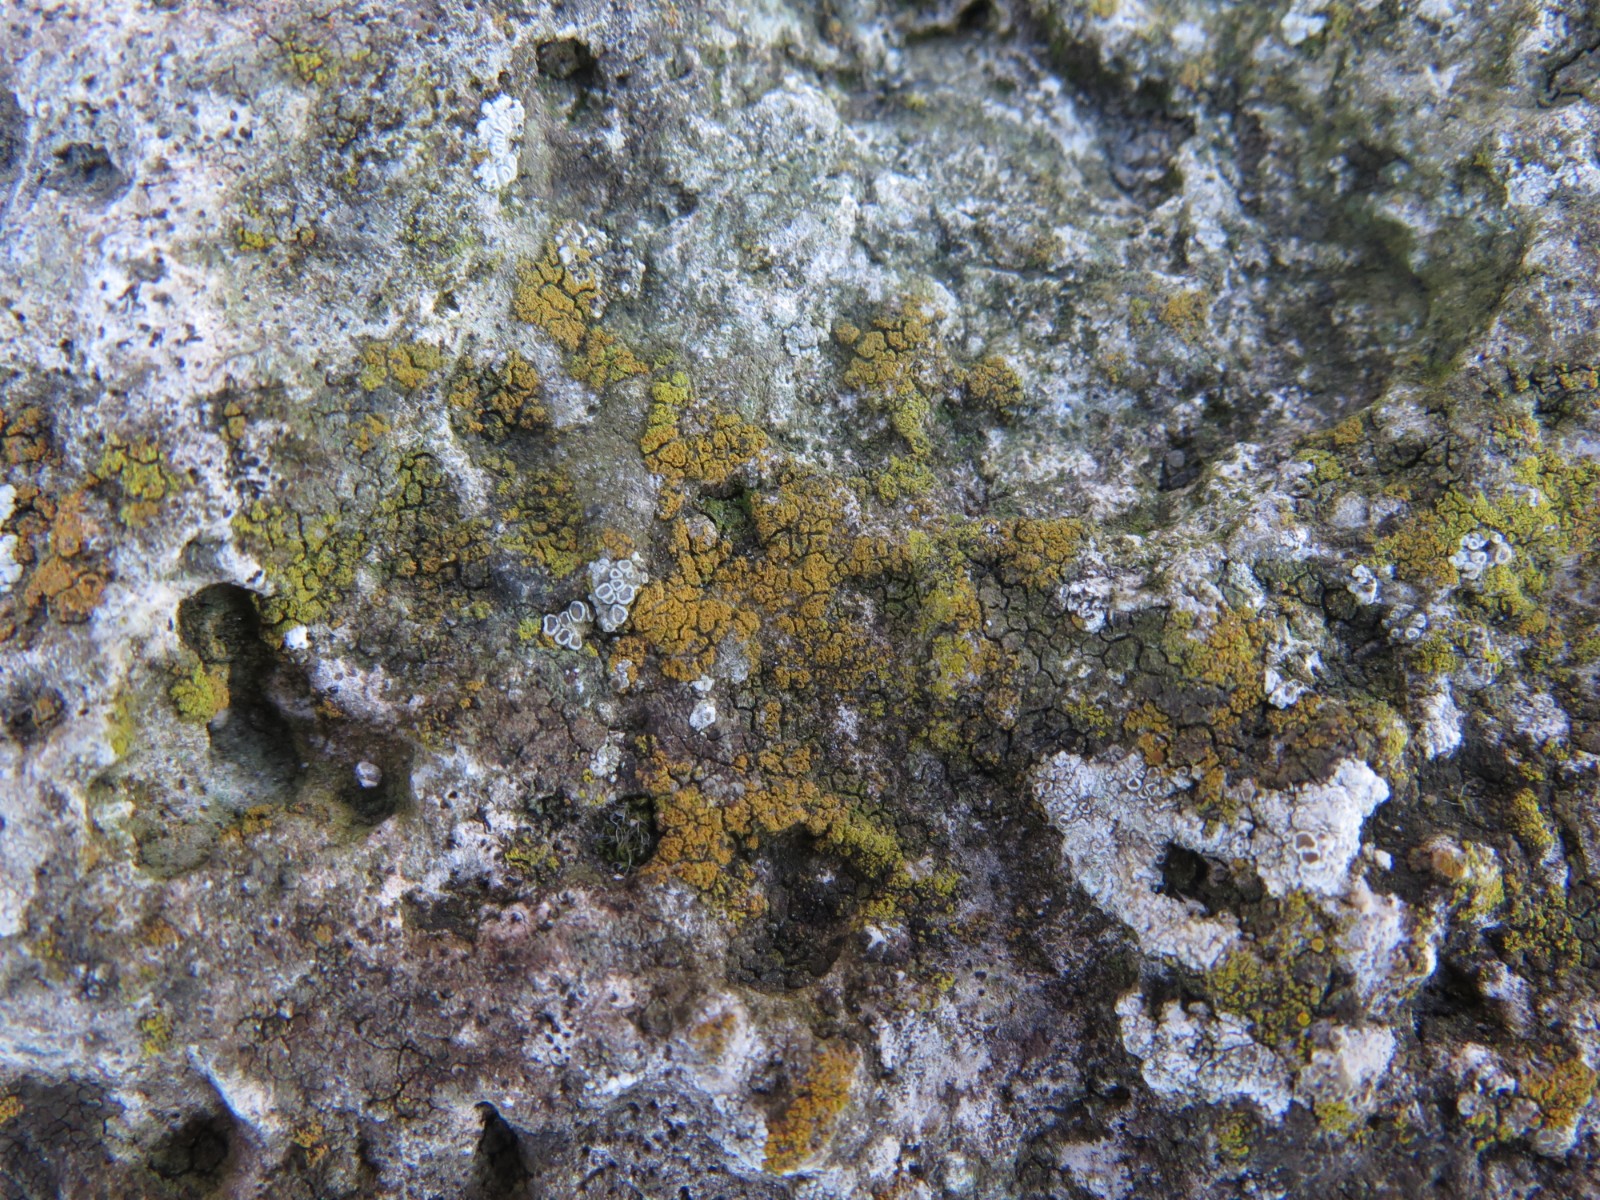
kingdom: Fungi
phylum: Ascomycota
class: Candelariomycetes
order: Candelariales
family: Candelariaceae
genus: Candelariella
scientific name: Candelariella vitellina
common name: almindelig æggeblommelav
